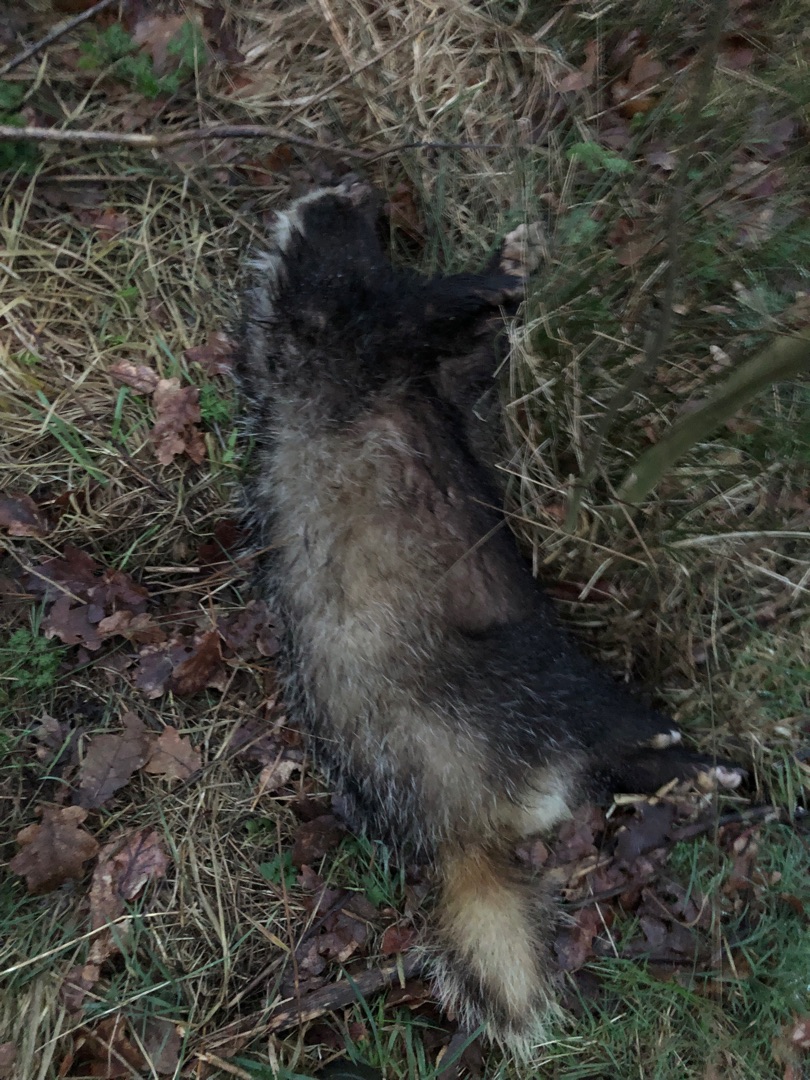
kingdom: Animalia
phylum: Chordata
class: Mammalia
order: Carnivora
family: Mustelidae
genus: Meles
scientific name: Meles meles
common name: Grævling
